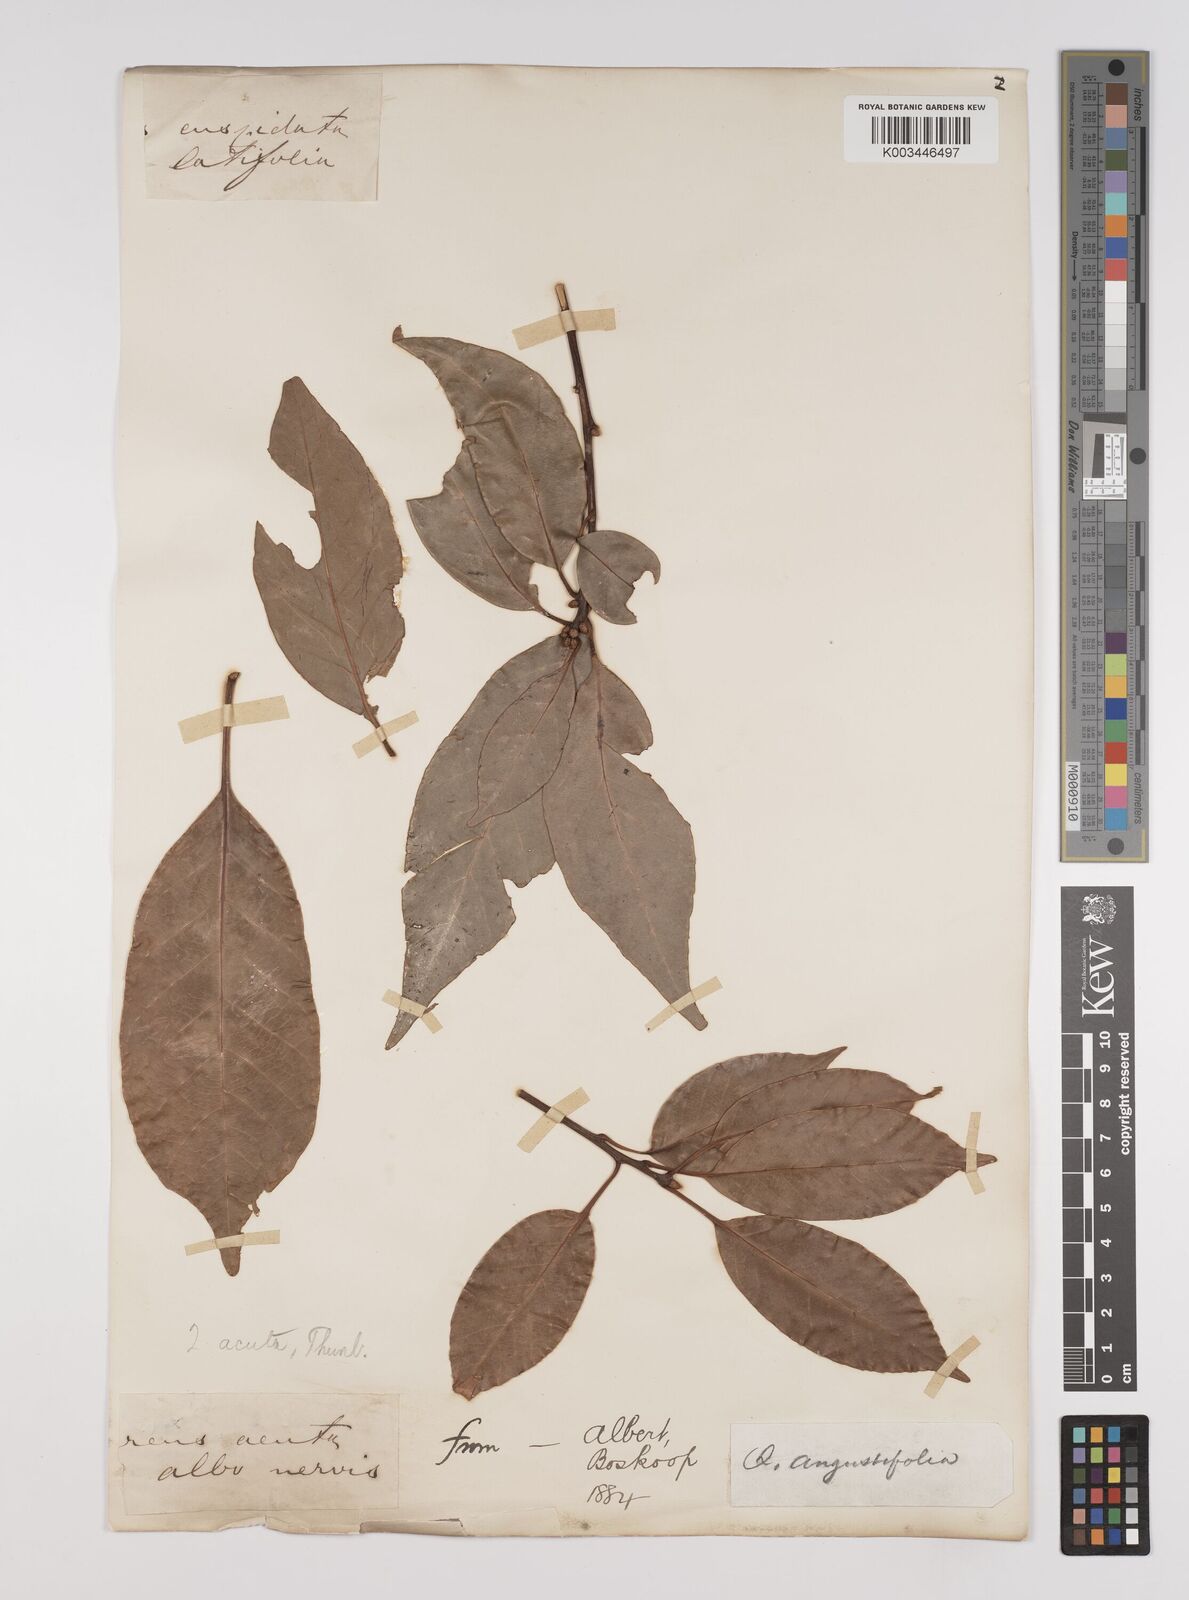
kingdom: Plantae
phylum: Tracheophyta
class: Magnoliopsida
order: Fagales
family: Fagaceae
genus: Quercus
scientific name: Quercus coccinea
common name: Scarlet oak
